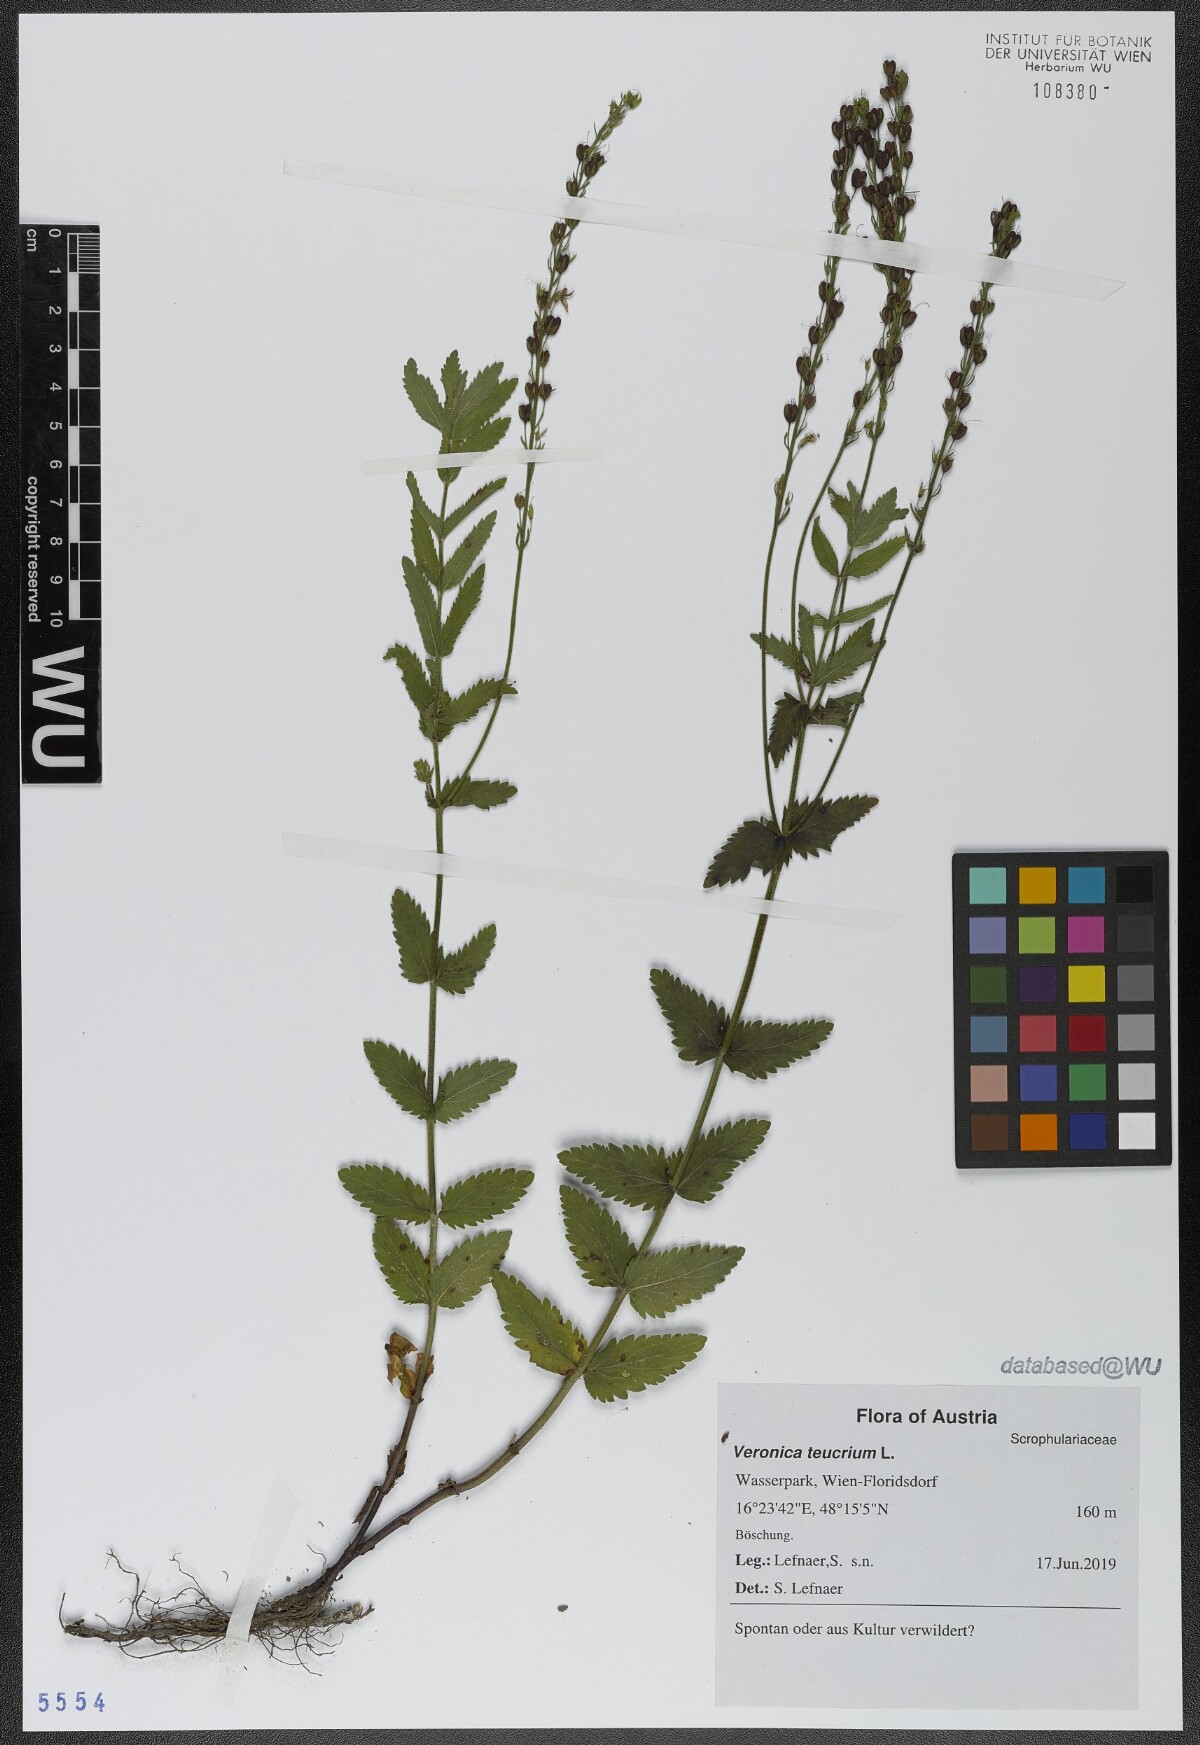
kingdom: Plantae
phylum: Tracheophyta
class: Magnoliopsida
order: Lamiales
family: Plantaginaceae
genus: Veronica
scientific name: Veronica teucrium
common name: Large speedwell
